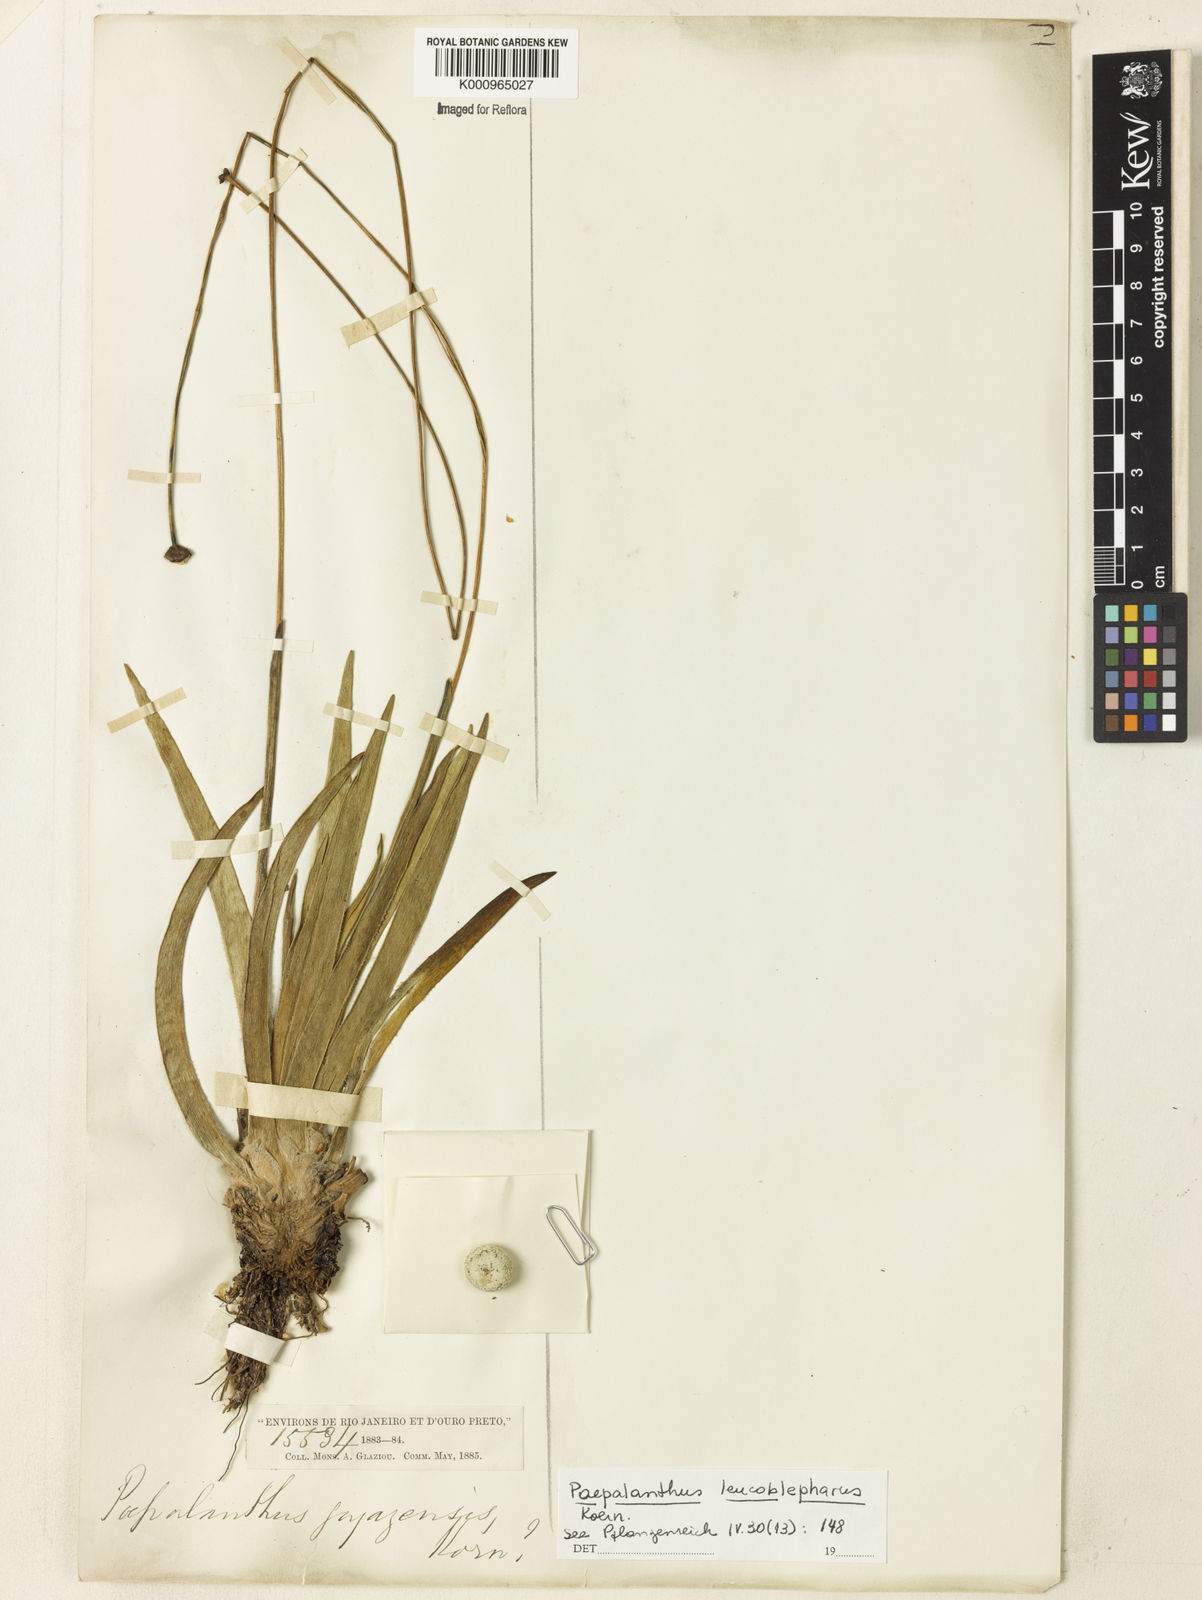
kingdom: Plantae
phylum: Tracheophyta
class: Liliopsida
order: Poales
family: Eriocaulaceae
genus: Paepalanthus
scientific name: Paepalanthus
